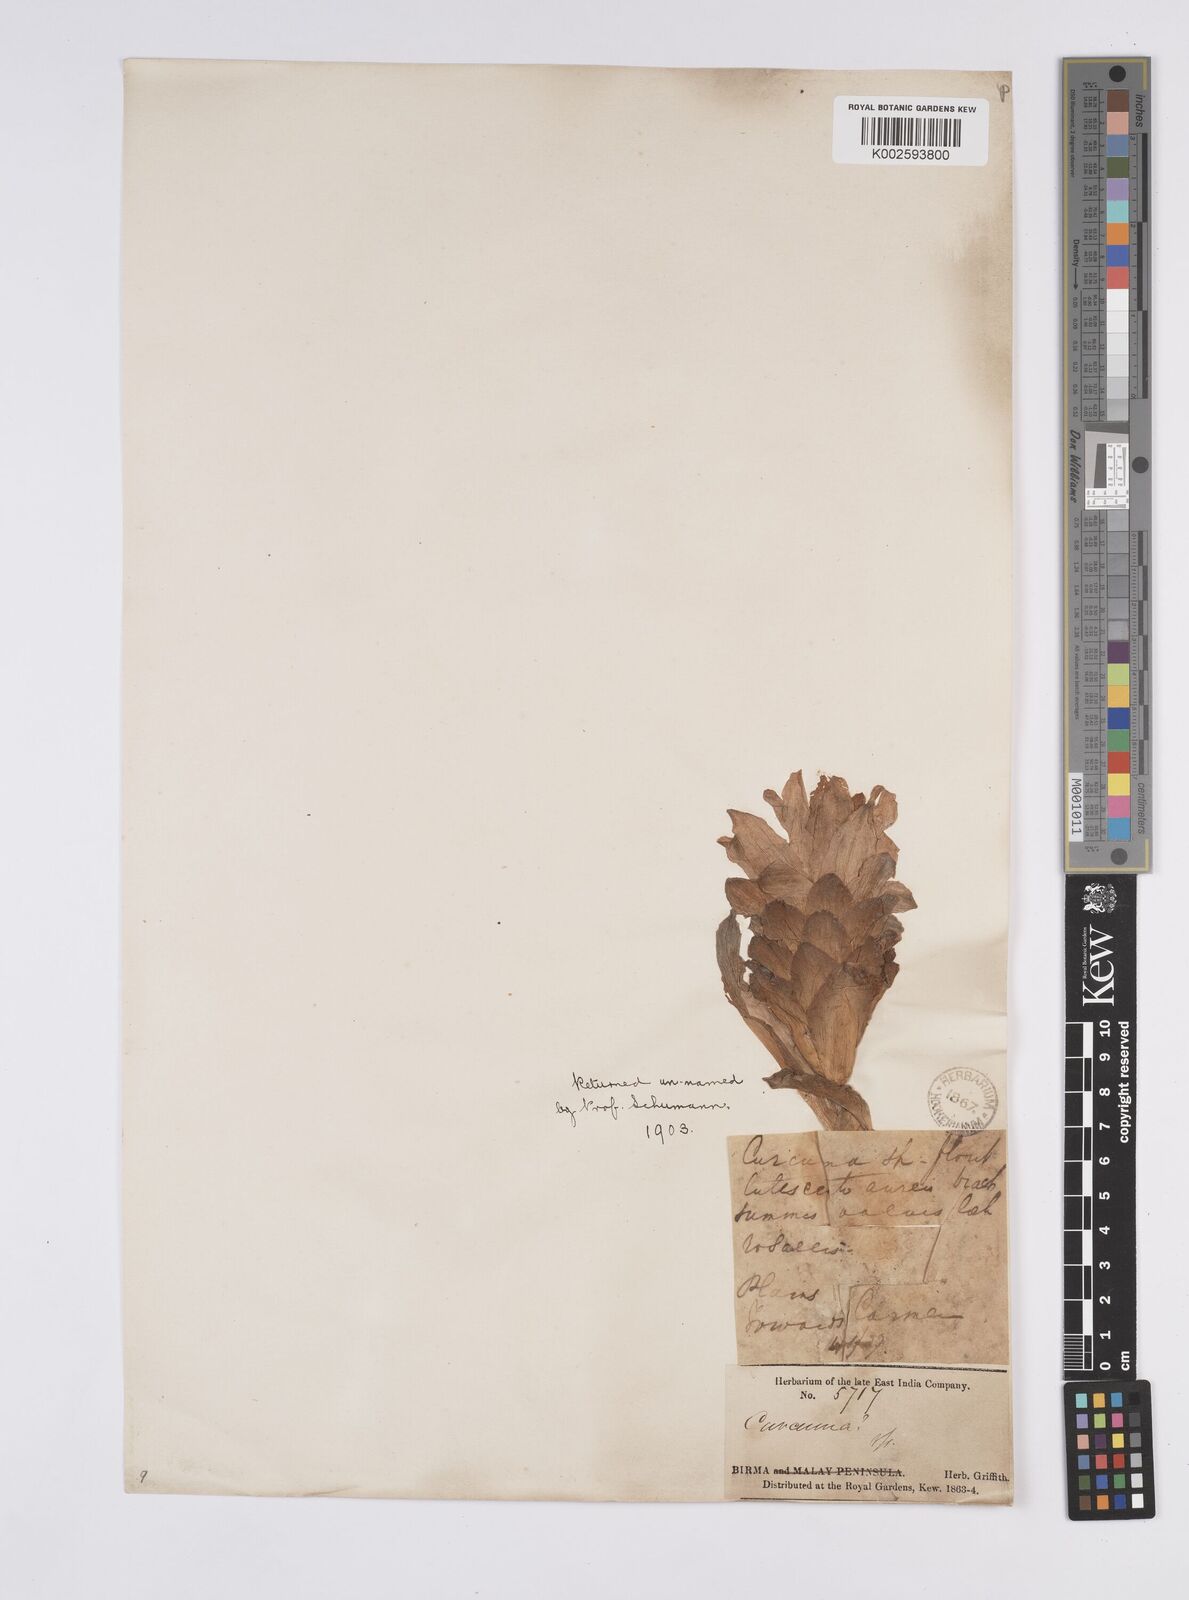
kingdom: Plantae
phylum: Tracheophyta
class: Liliopsida
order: Zingiberales
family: Zingiberaceae
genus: Curcuma
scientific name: Curcuma
